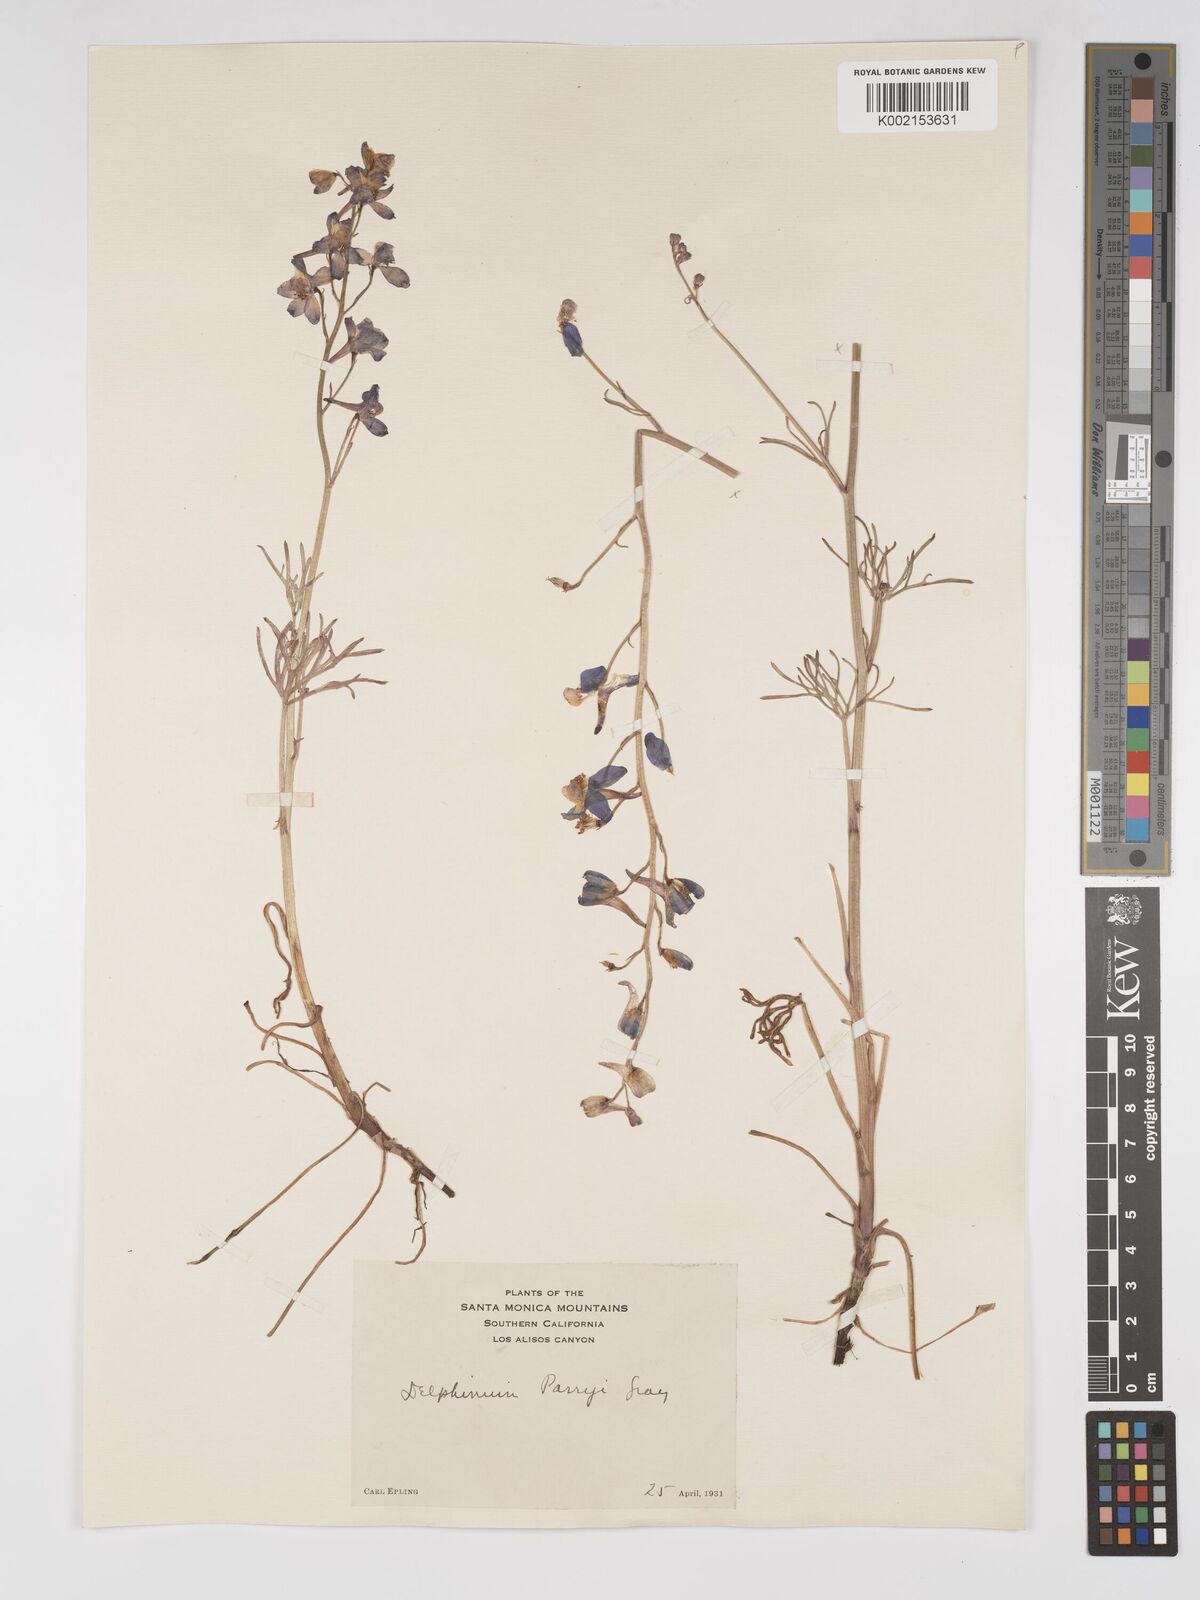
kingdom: Plantae
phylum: Tracheophyta
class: Magnoliopsida
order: Ranunculales
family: Ranunculaceae
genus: Delphinium
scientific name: Delphinium parryi
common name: Parry's larkspur
